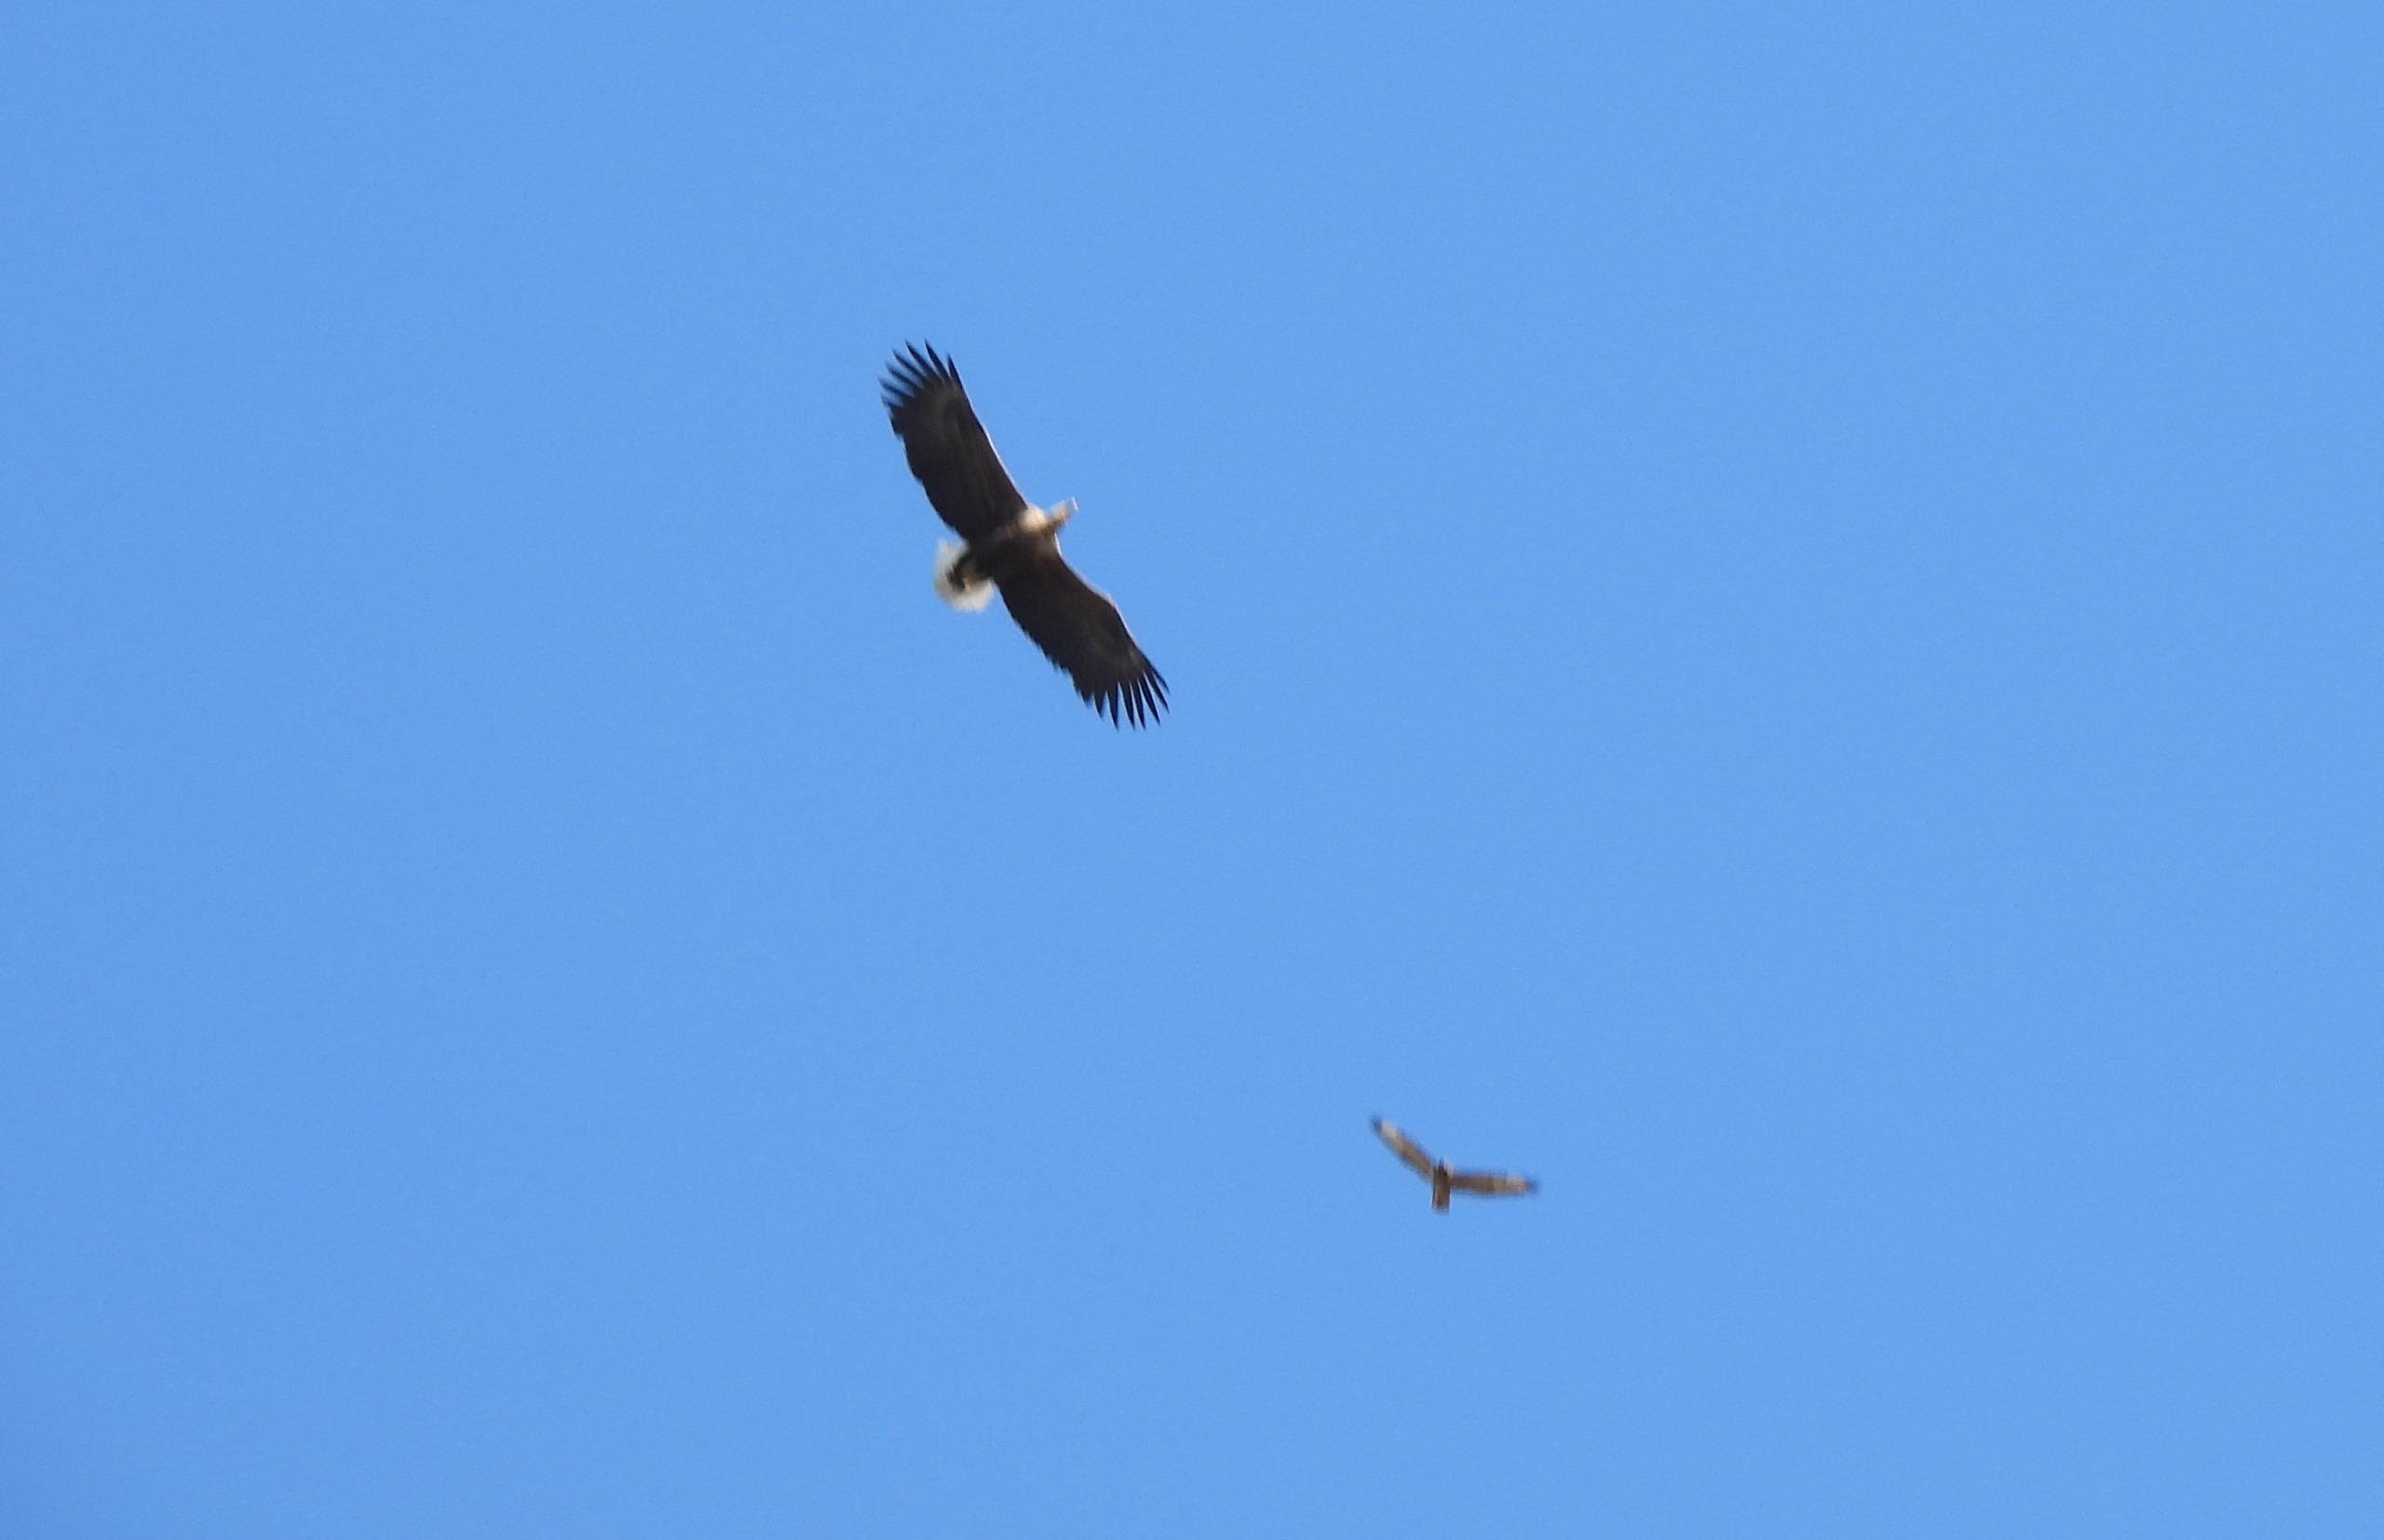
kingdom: Animalia
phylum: Chordata
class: Aves
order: Accipitriformes
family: Accipitridae
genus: Haliaeetus
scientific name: Haliaeetus albicilla
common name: Havørn
